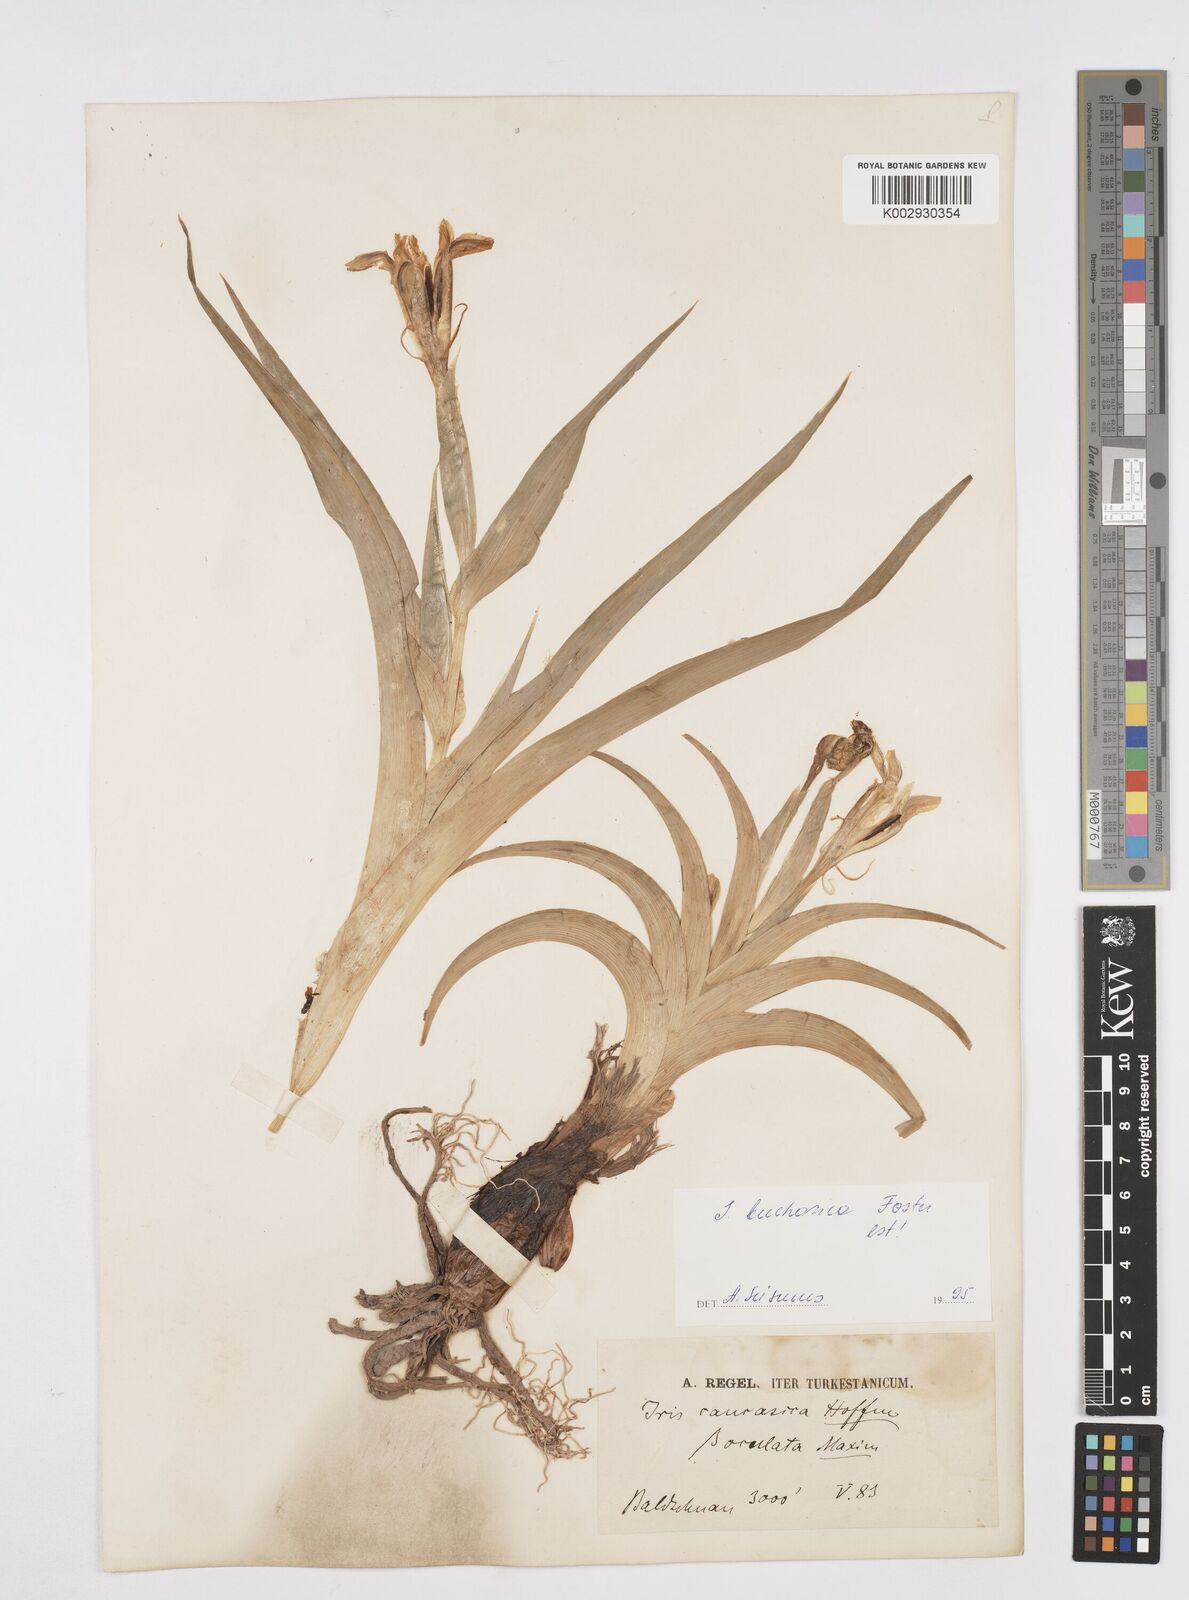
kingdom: Plantae
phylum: Tracheophyta
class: Liliopsida
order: Asparagales
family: Iridaceae
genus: Iris
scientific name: Iris orchioides
